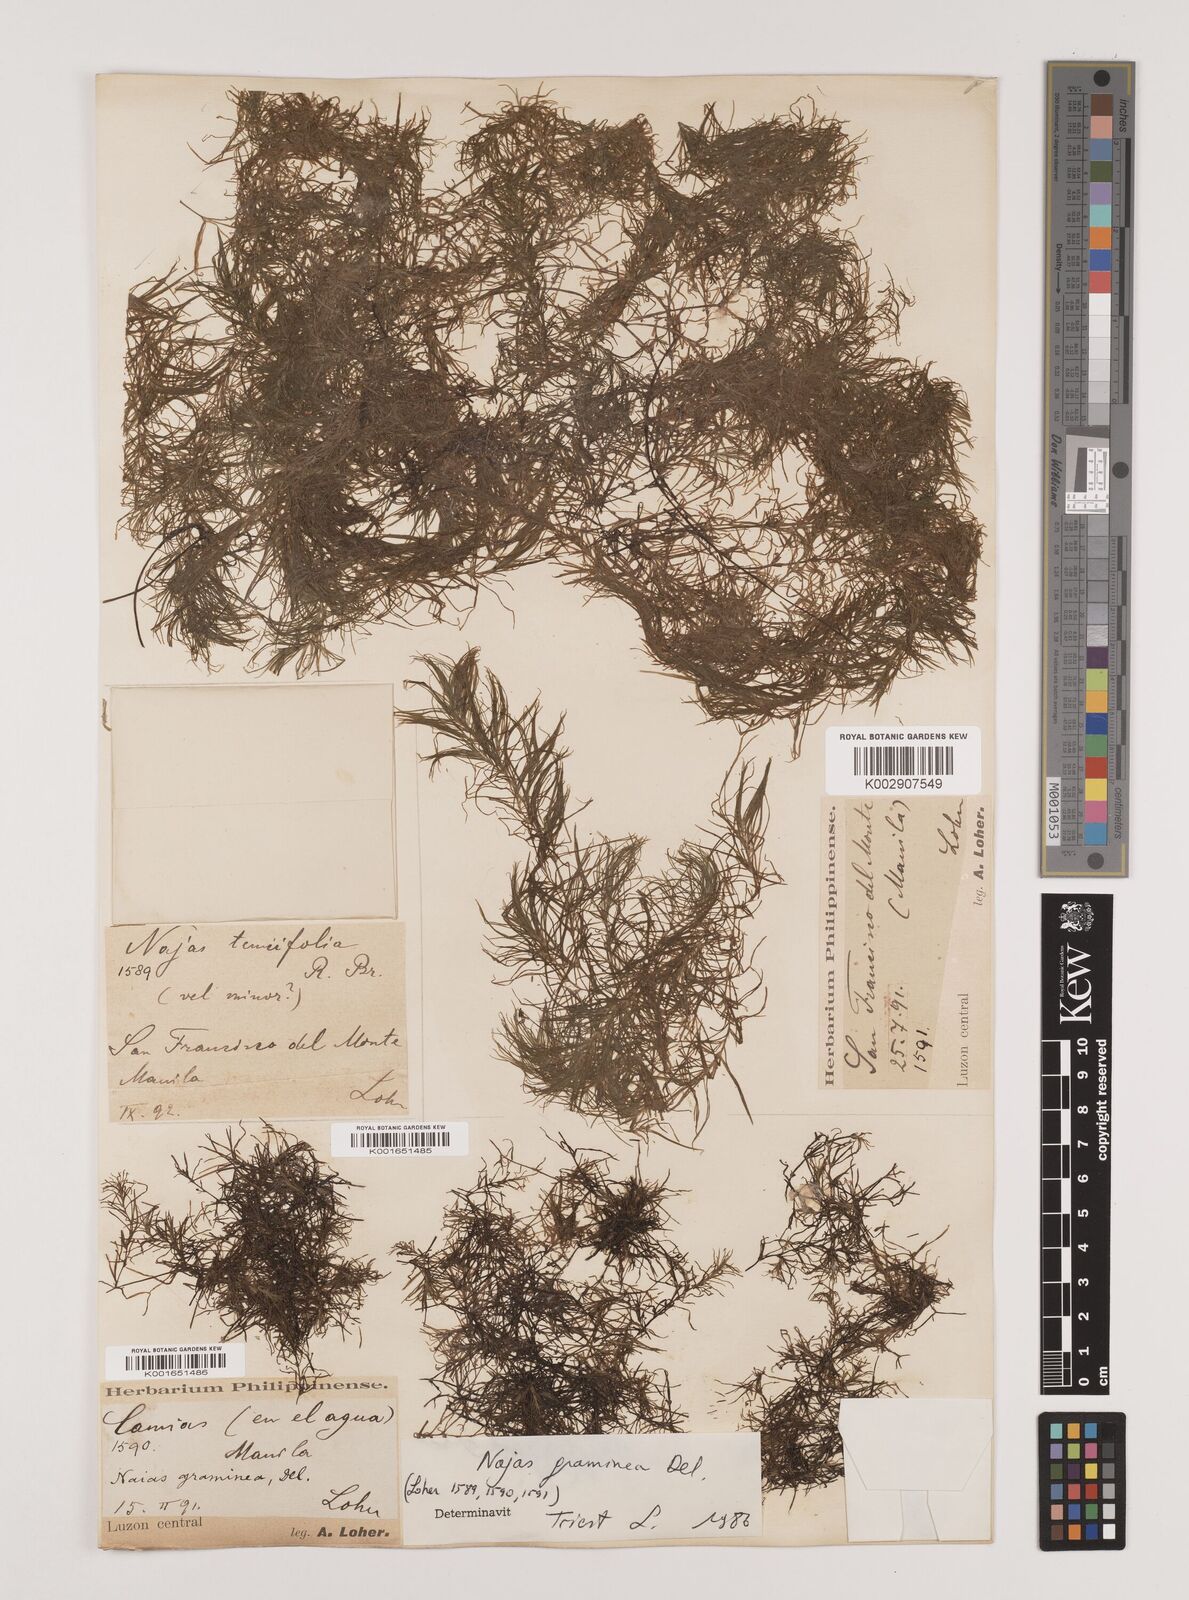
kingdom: Plantae
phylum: Tracheophyta
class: Liliopsida
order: Alismatales
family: Hydrocharitaceae
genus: Najas
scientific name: Najas graminea
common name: Ricefield waternymph
